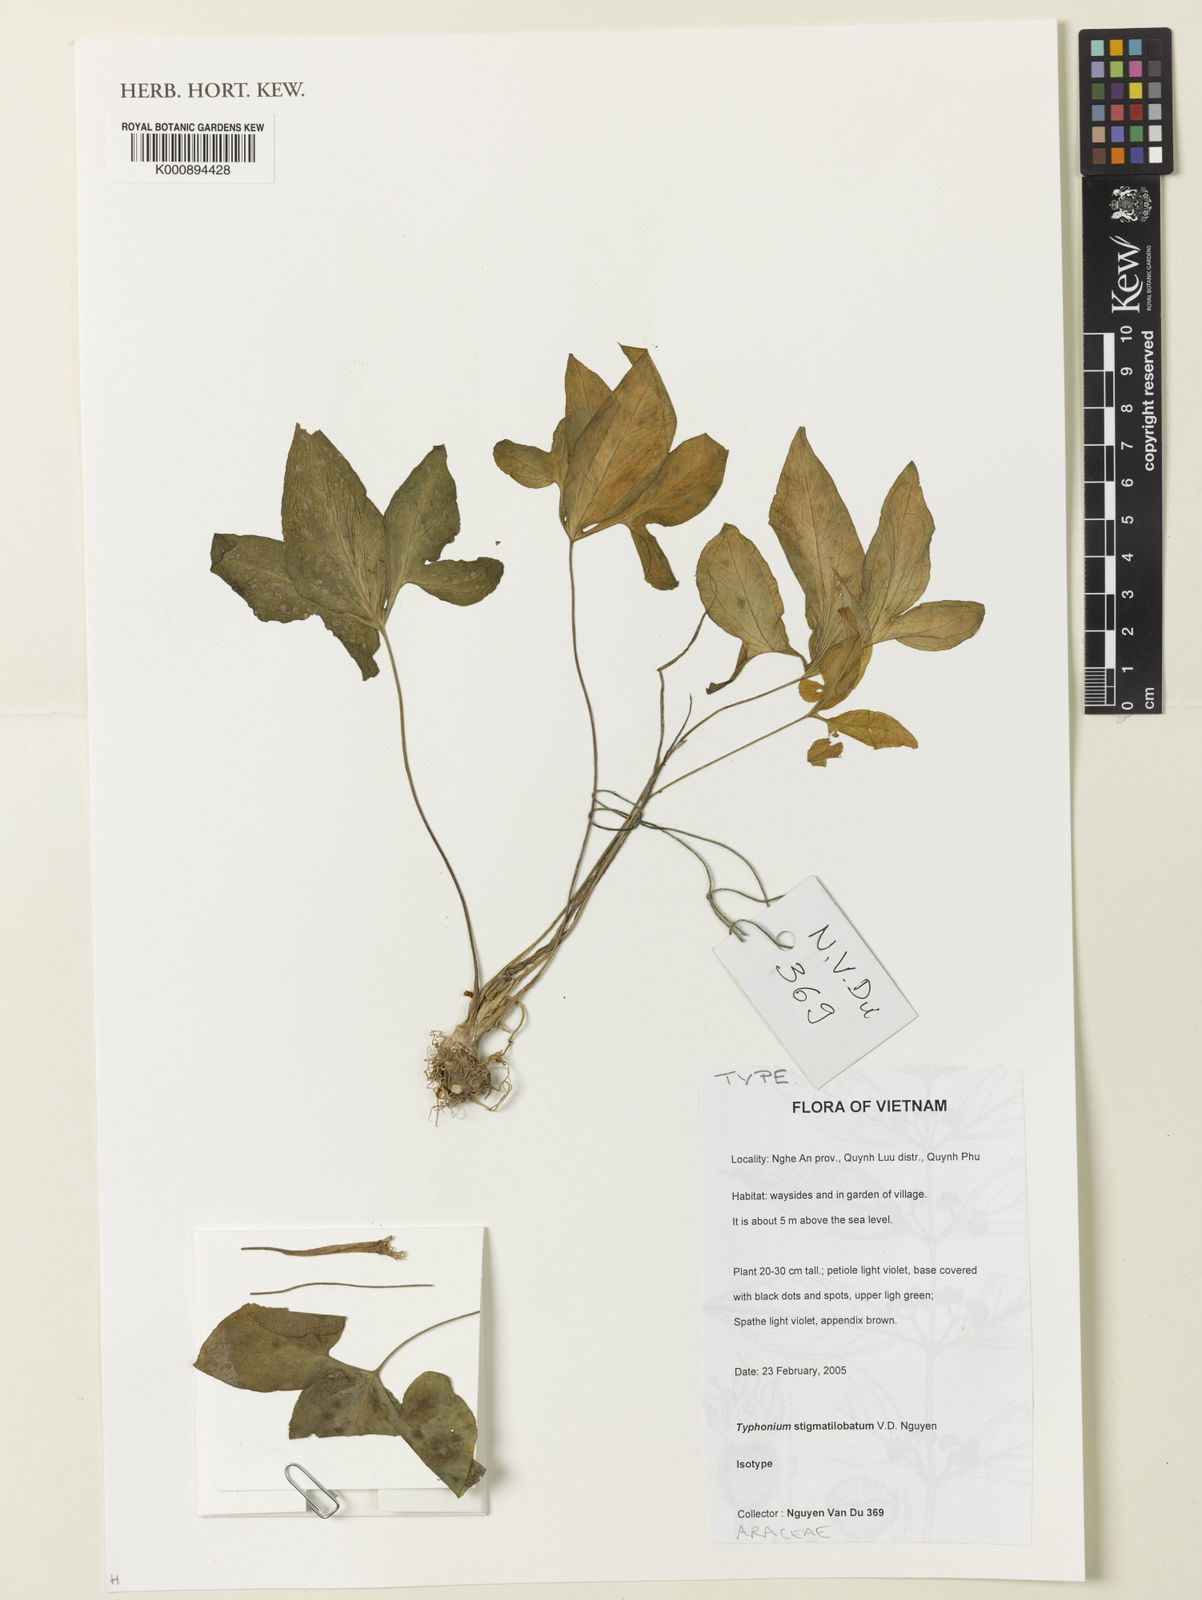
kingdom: Plantae
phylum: Tracheophyta
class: Liliopsida
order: Alismatales
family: Araceae
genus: Typhonium
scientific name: Typhonium stigmatilobatum
